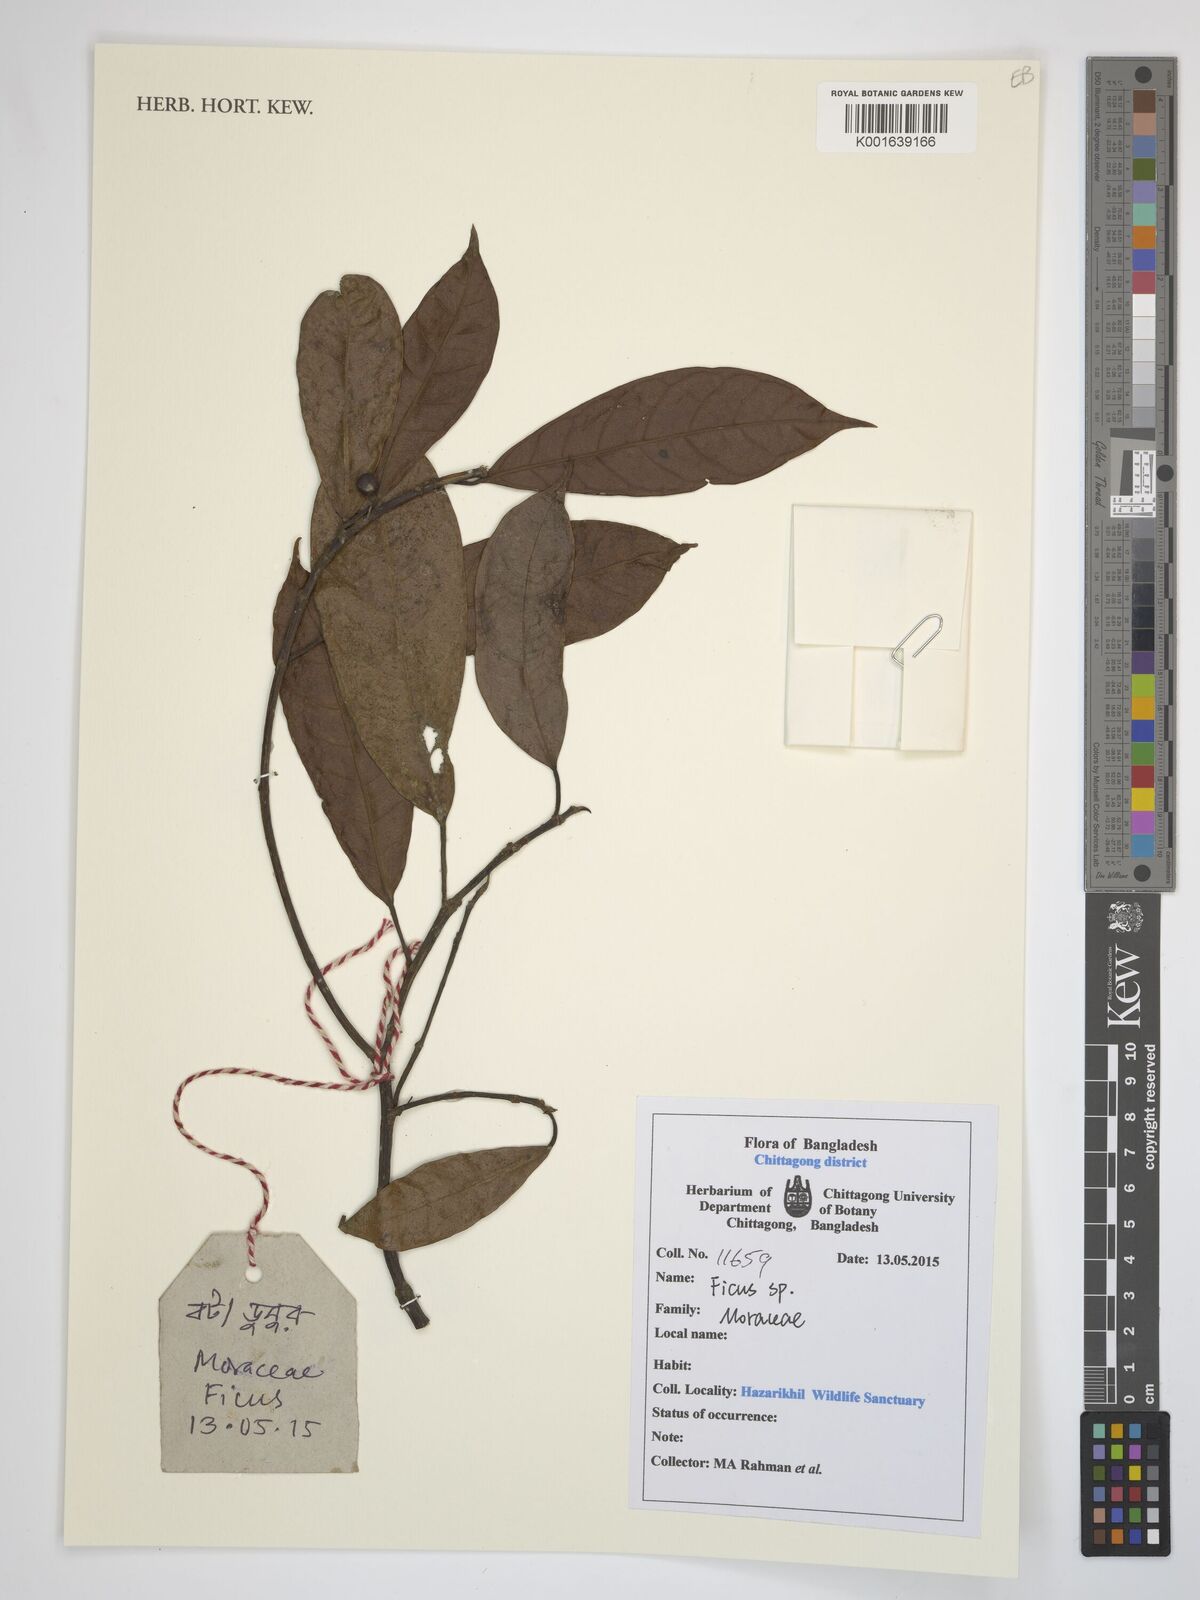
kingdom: Plantae
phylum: Tracheophyta
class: Magnoliopsida
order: Rosales
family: Moraceae
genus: Ficus
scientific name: Ficus
